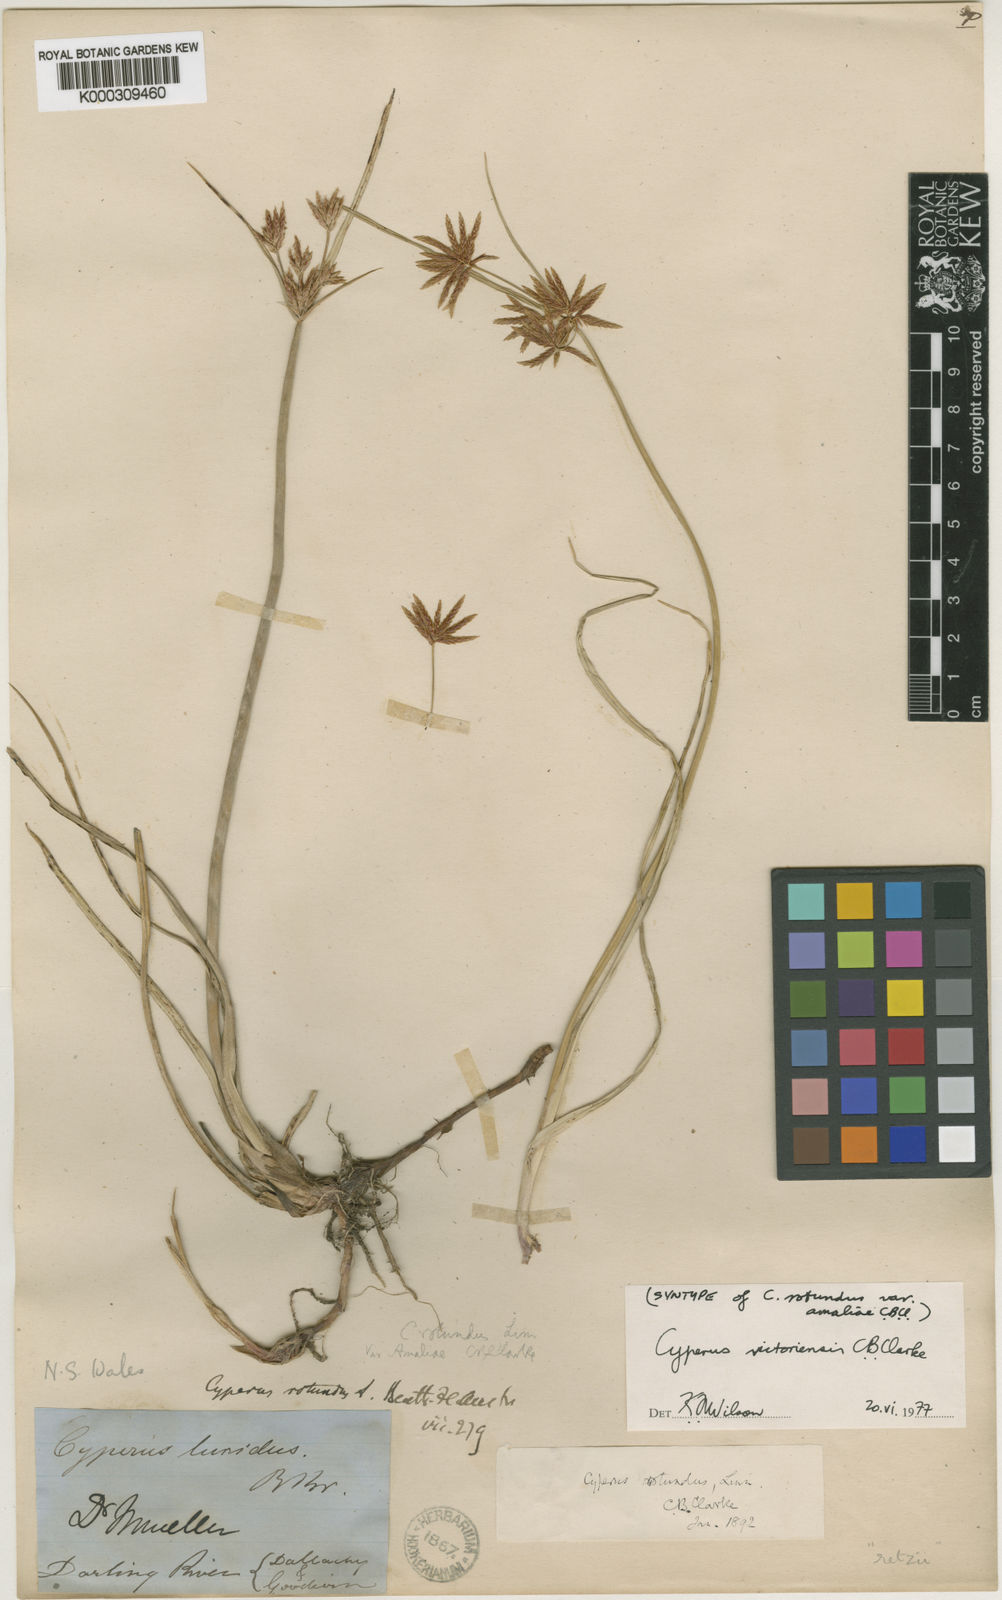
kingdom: Plantae
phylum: Tracheophyta
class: Liliopsida
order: Poales
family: Cyperaceae
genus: Cyperus
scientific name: Cyperus victoriensis
